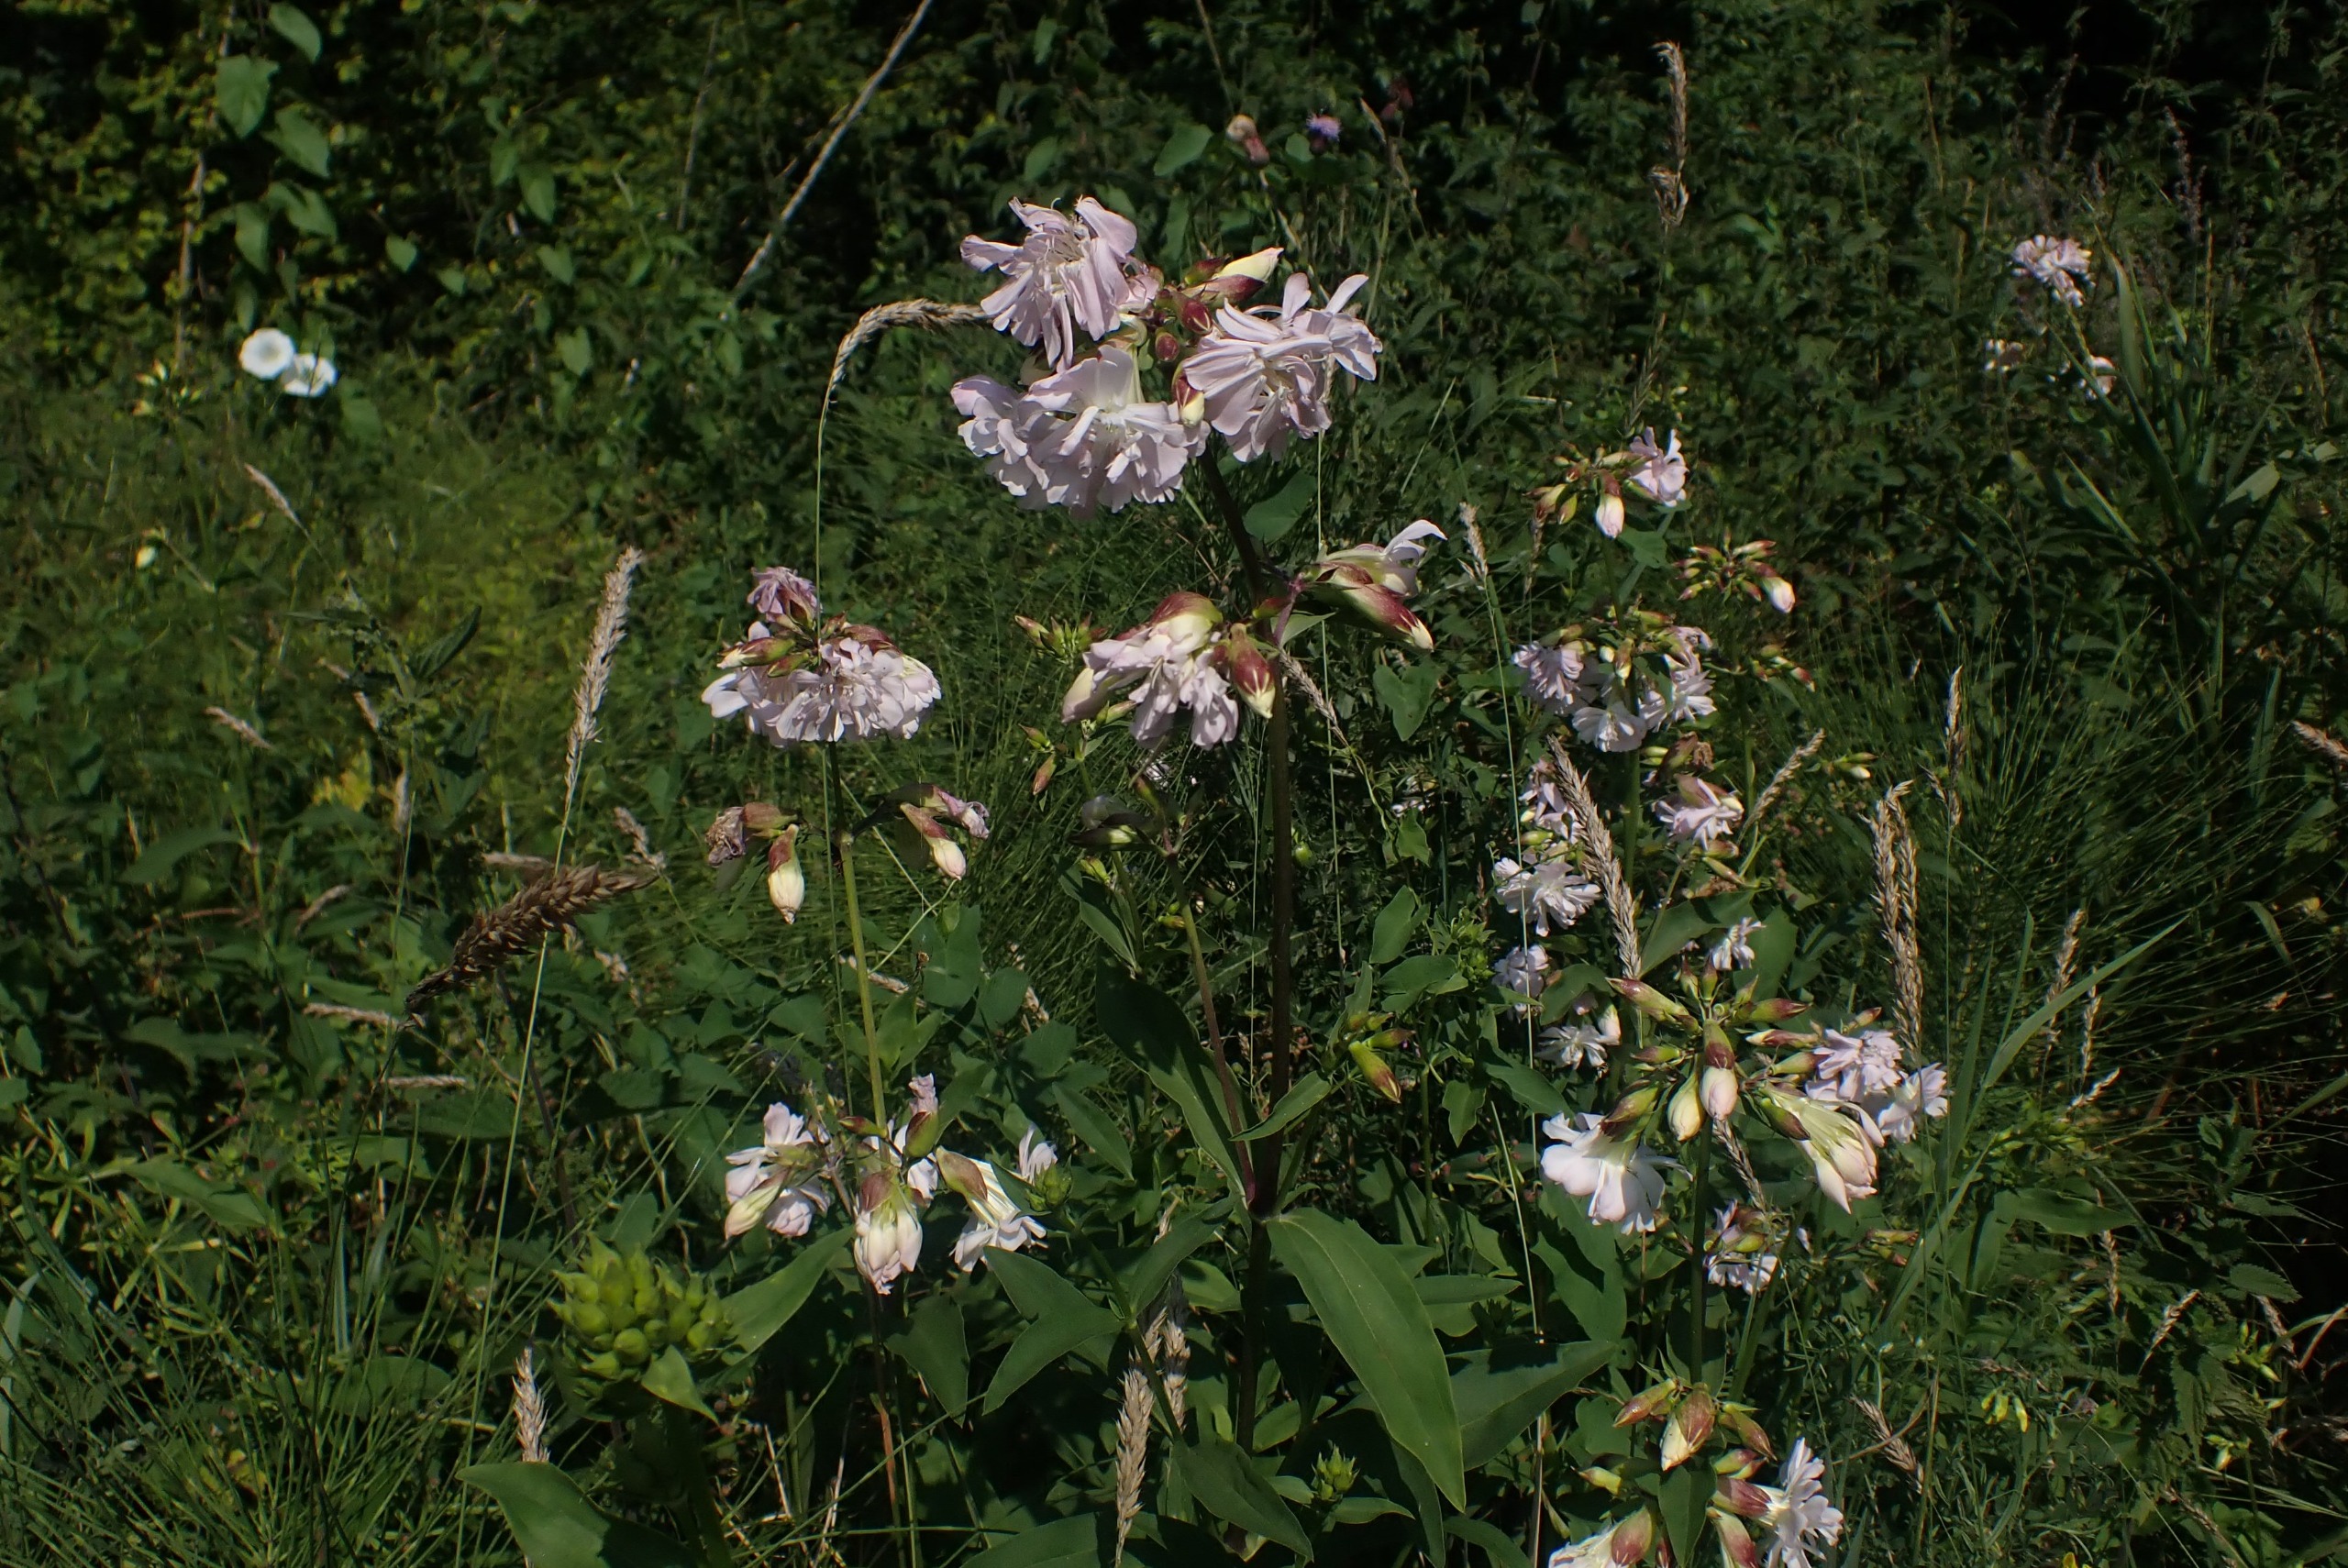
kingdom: Plantae
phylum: Tracheophyta
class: Magnoliopsida
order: Caryophyllales
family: Caryophyllaceae
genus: Saponaria
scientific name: Saponaria officinalis
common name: Sæbeurt
